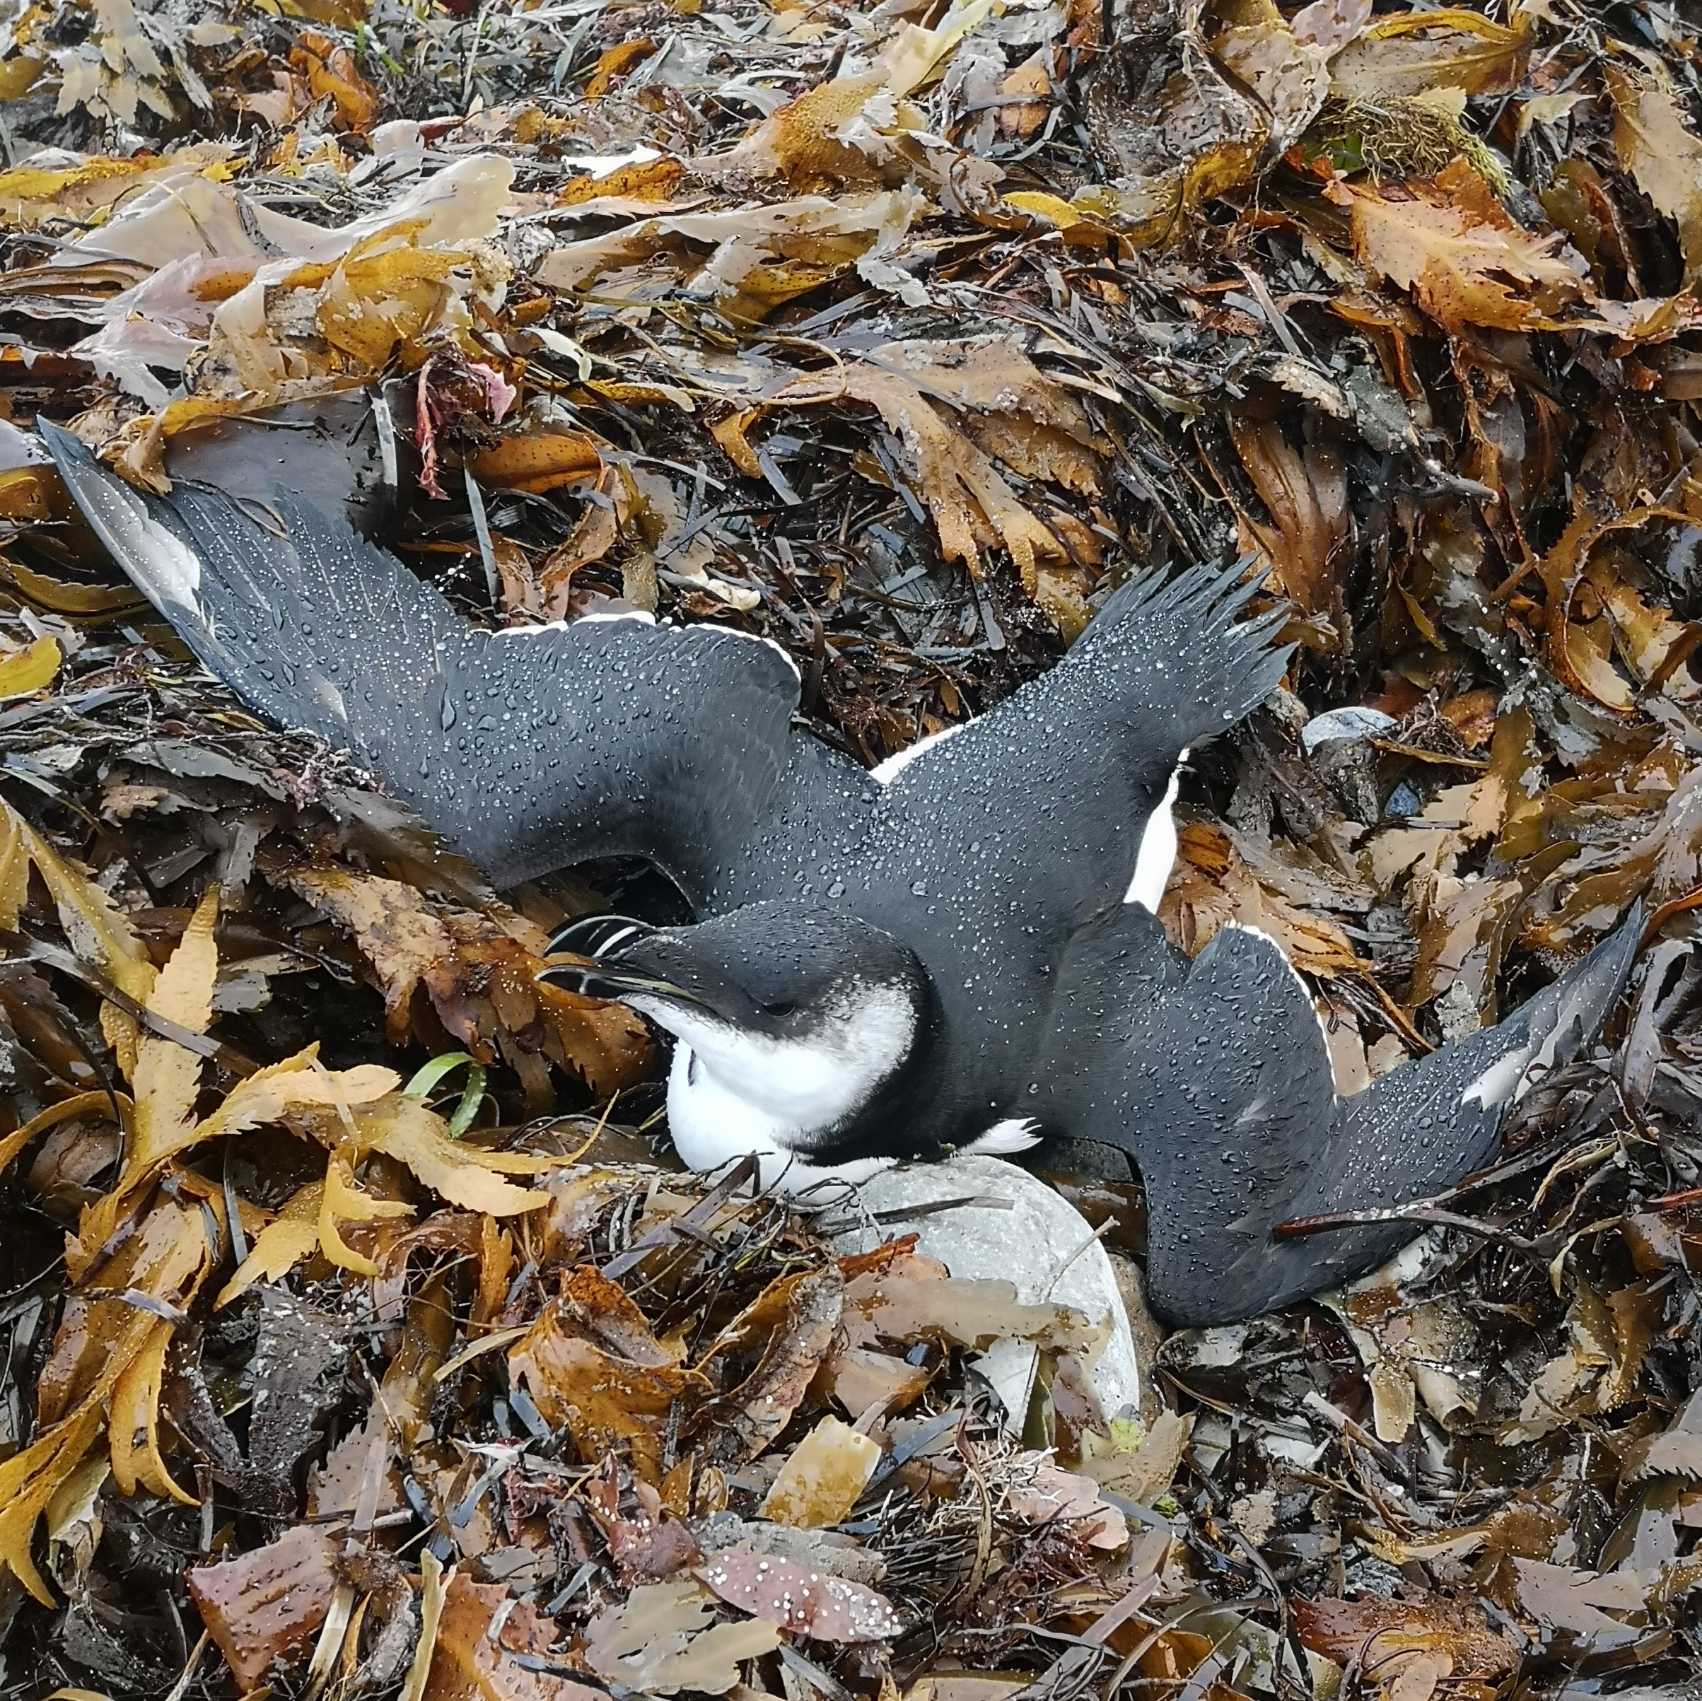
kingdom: Animalia
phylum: Chordata
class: Aves
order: Charadriiformes
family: Alcidae
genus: Alca
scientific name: Alca torda
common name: Alk
